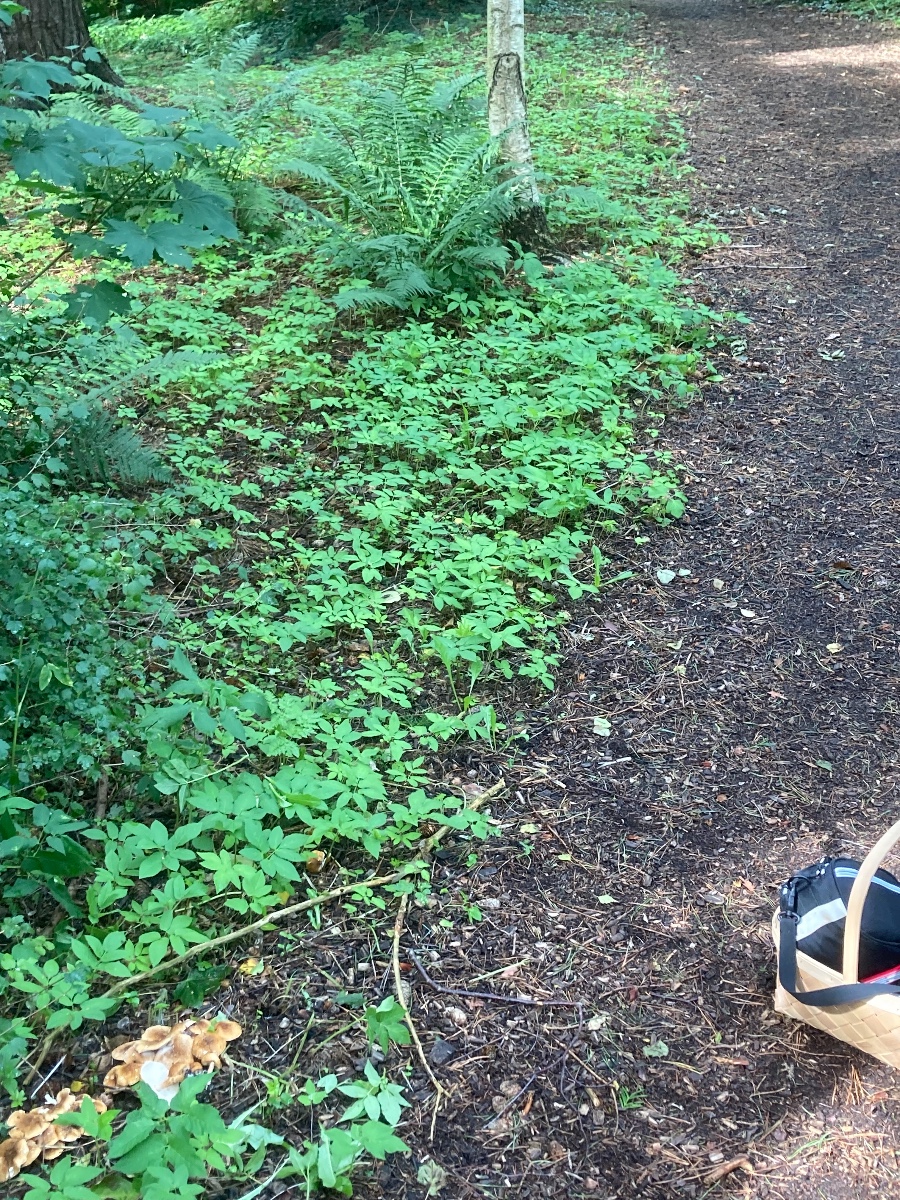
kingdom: Fungi
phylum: Basidiomycota
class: Agaricomycetes
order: Agaricales
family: Agaricaceae
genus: Leucocoprinus
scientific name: Leucocoprinus straminellus
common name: rustbrun parasolhat
